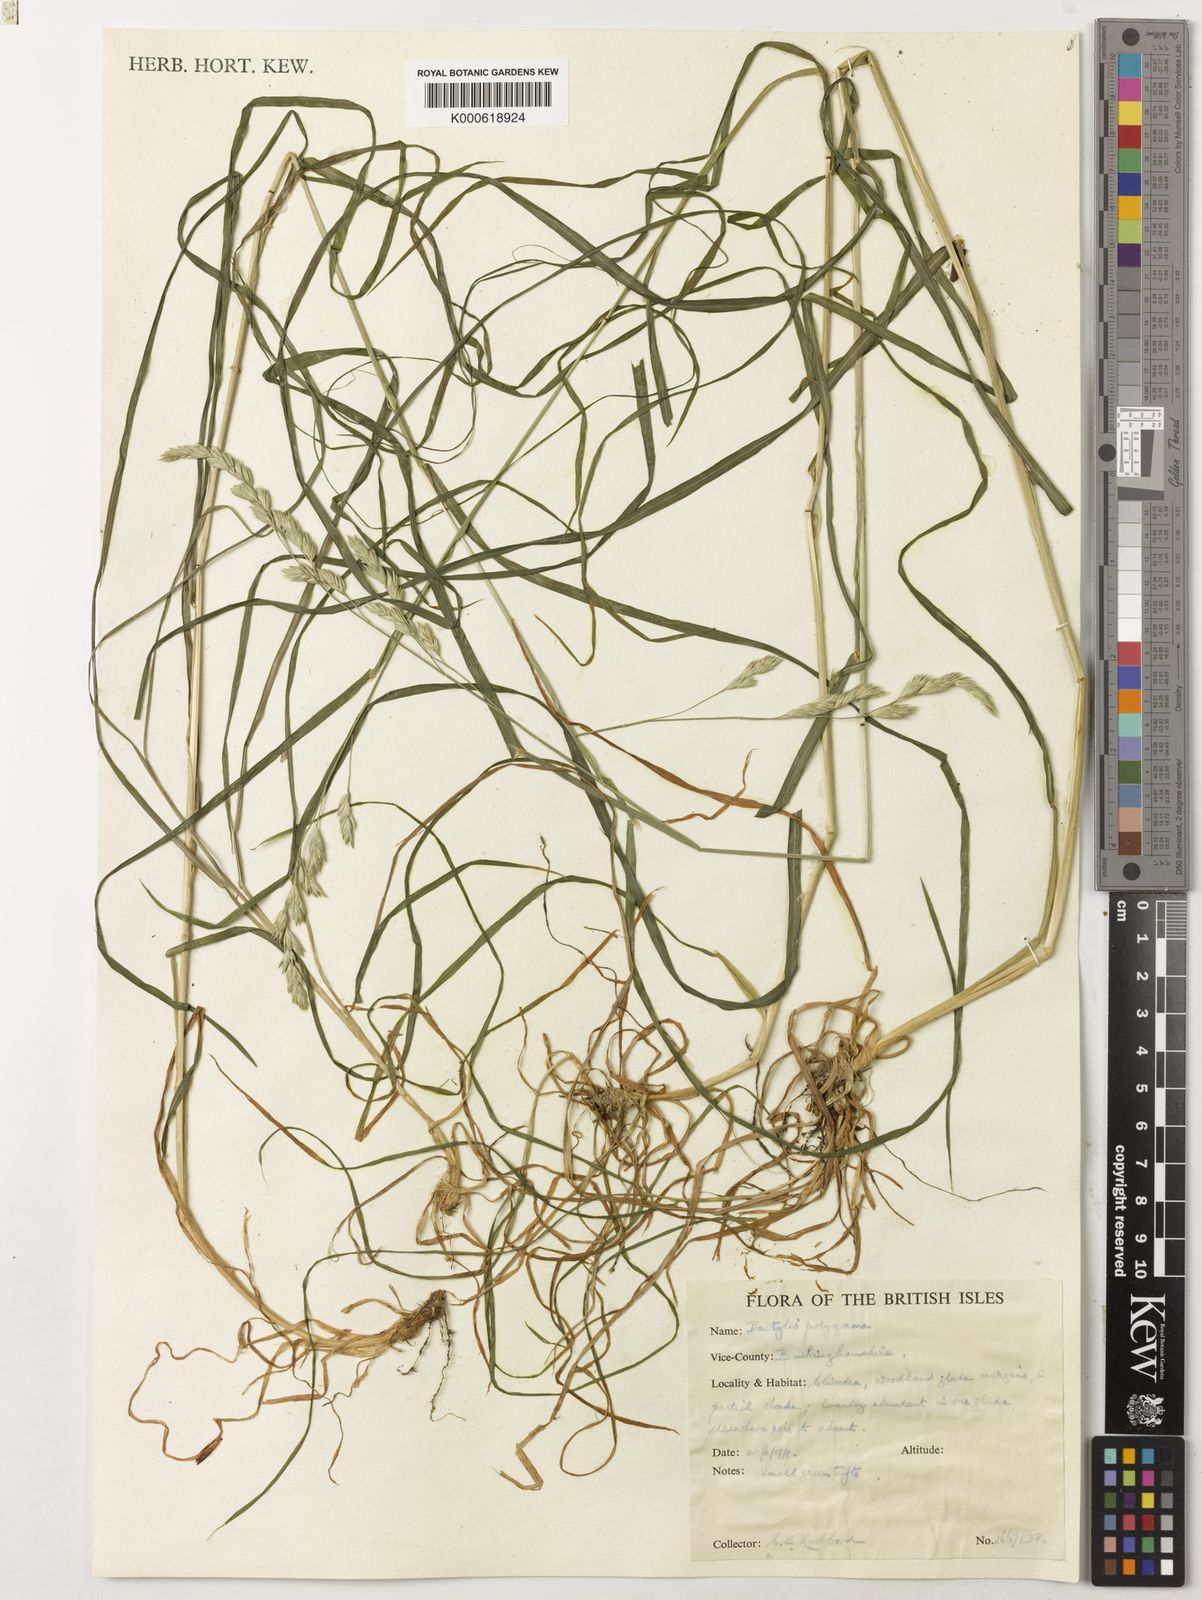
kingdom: Plantae
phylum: Tracheophyta
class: Liliopsida
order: Poales
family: Poaceae
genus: Dactylis
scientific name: Dactylis glomerata
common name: Orchardgrass
